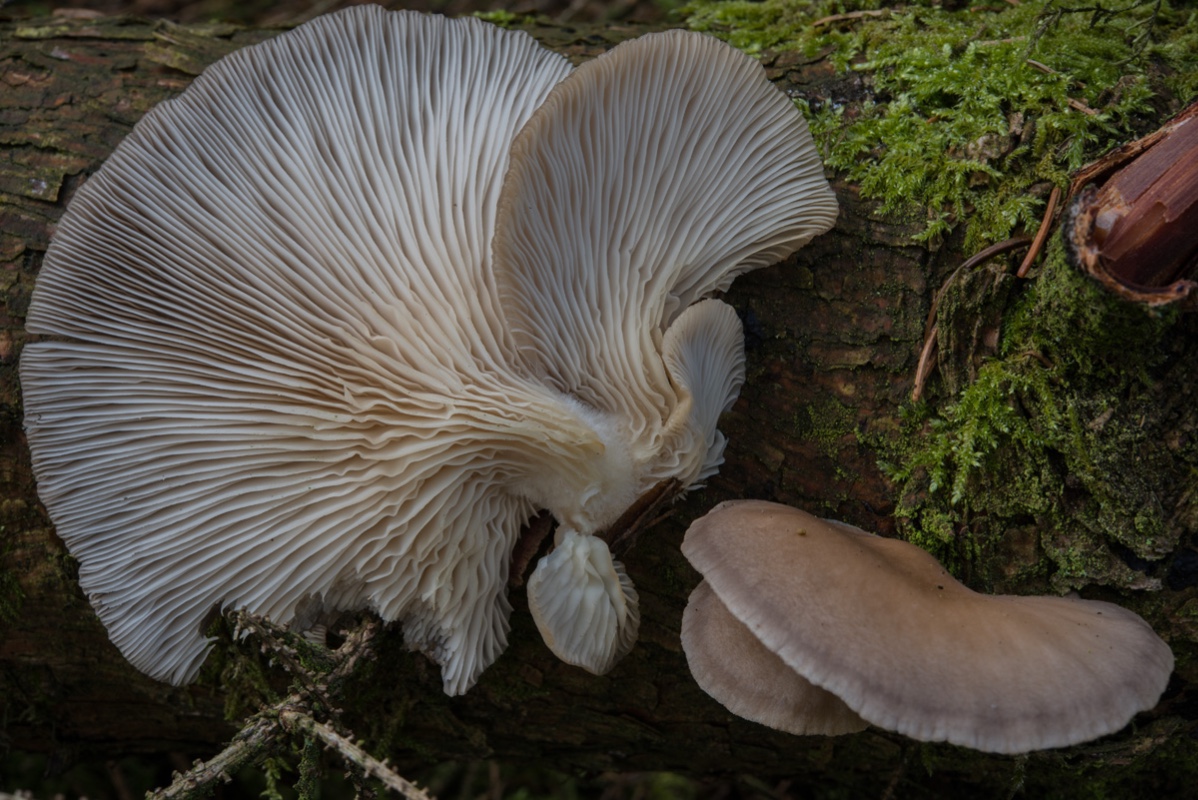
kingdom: Fungi
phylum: Basidiomycota
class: Agaricomycetes
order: Agaricales
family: Pleurotaceae
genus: Pleurotus
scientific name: Pleurotus ostreatus
